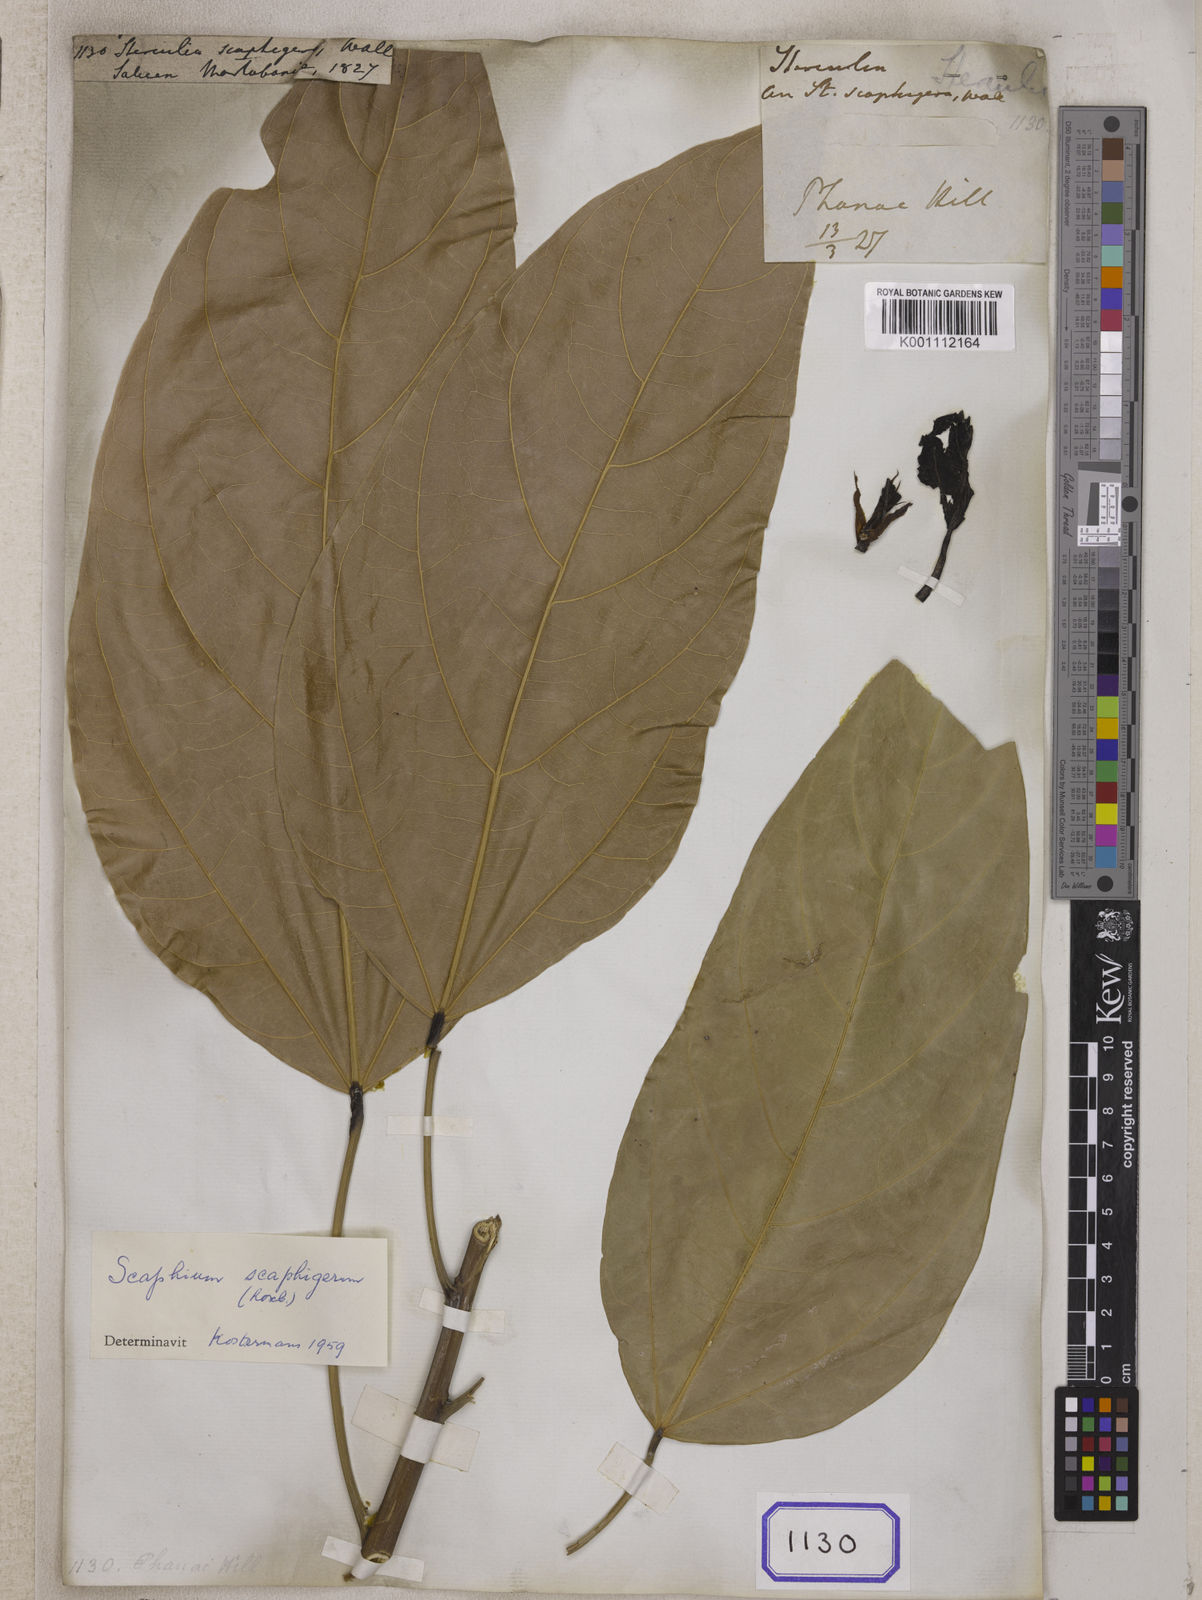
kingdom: Plantae
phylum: Tracheophyta
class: Magnoliopsida
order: Malvales
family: Malvaceae
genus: Sterculia
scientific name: Sterculia
